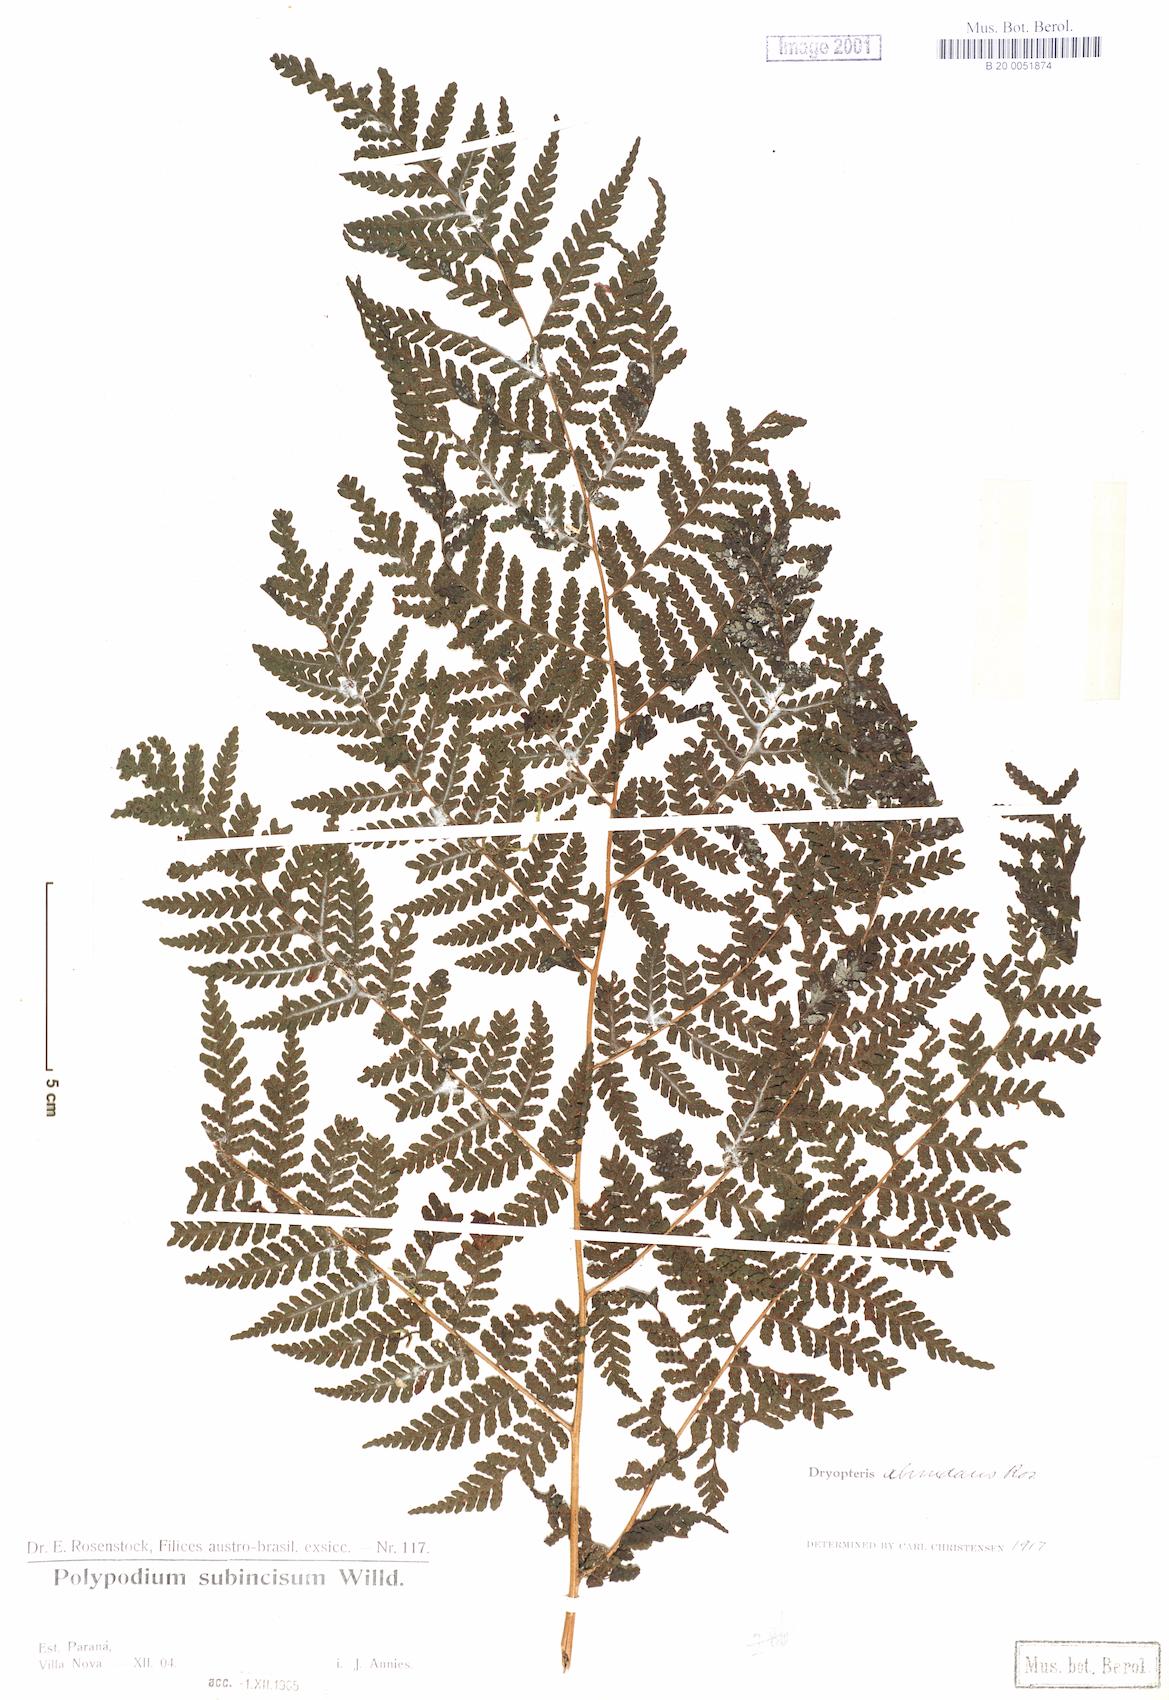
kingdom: Plantae
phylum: Tracheophyta
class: Polypodiopsida
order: Polypodiales
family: Dryopteridaceae
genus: Megalastrum
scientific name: Megalastrum abundans
